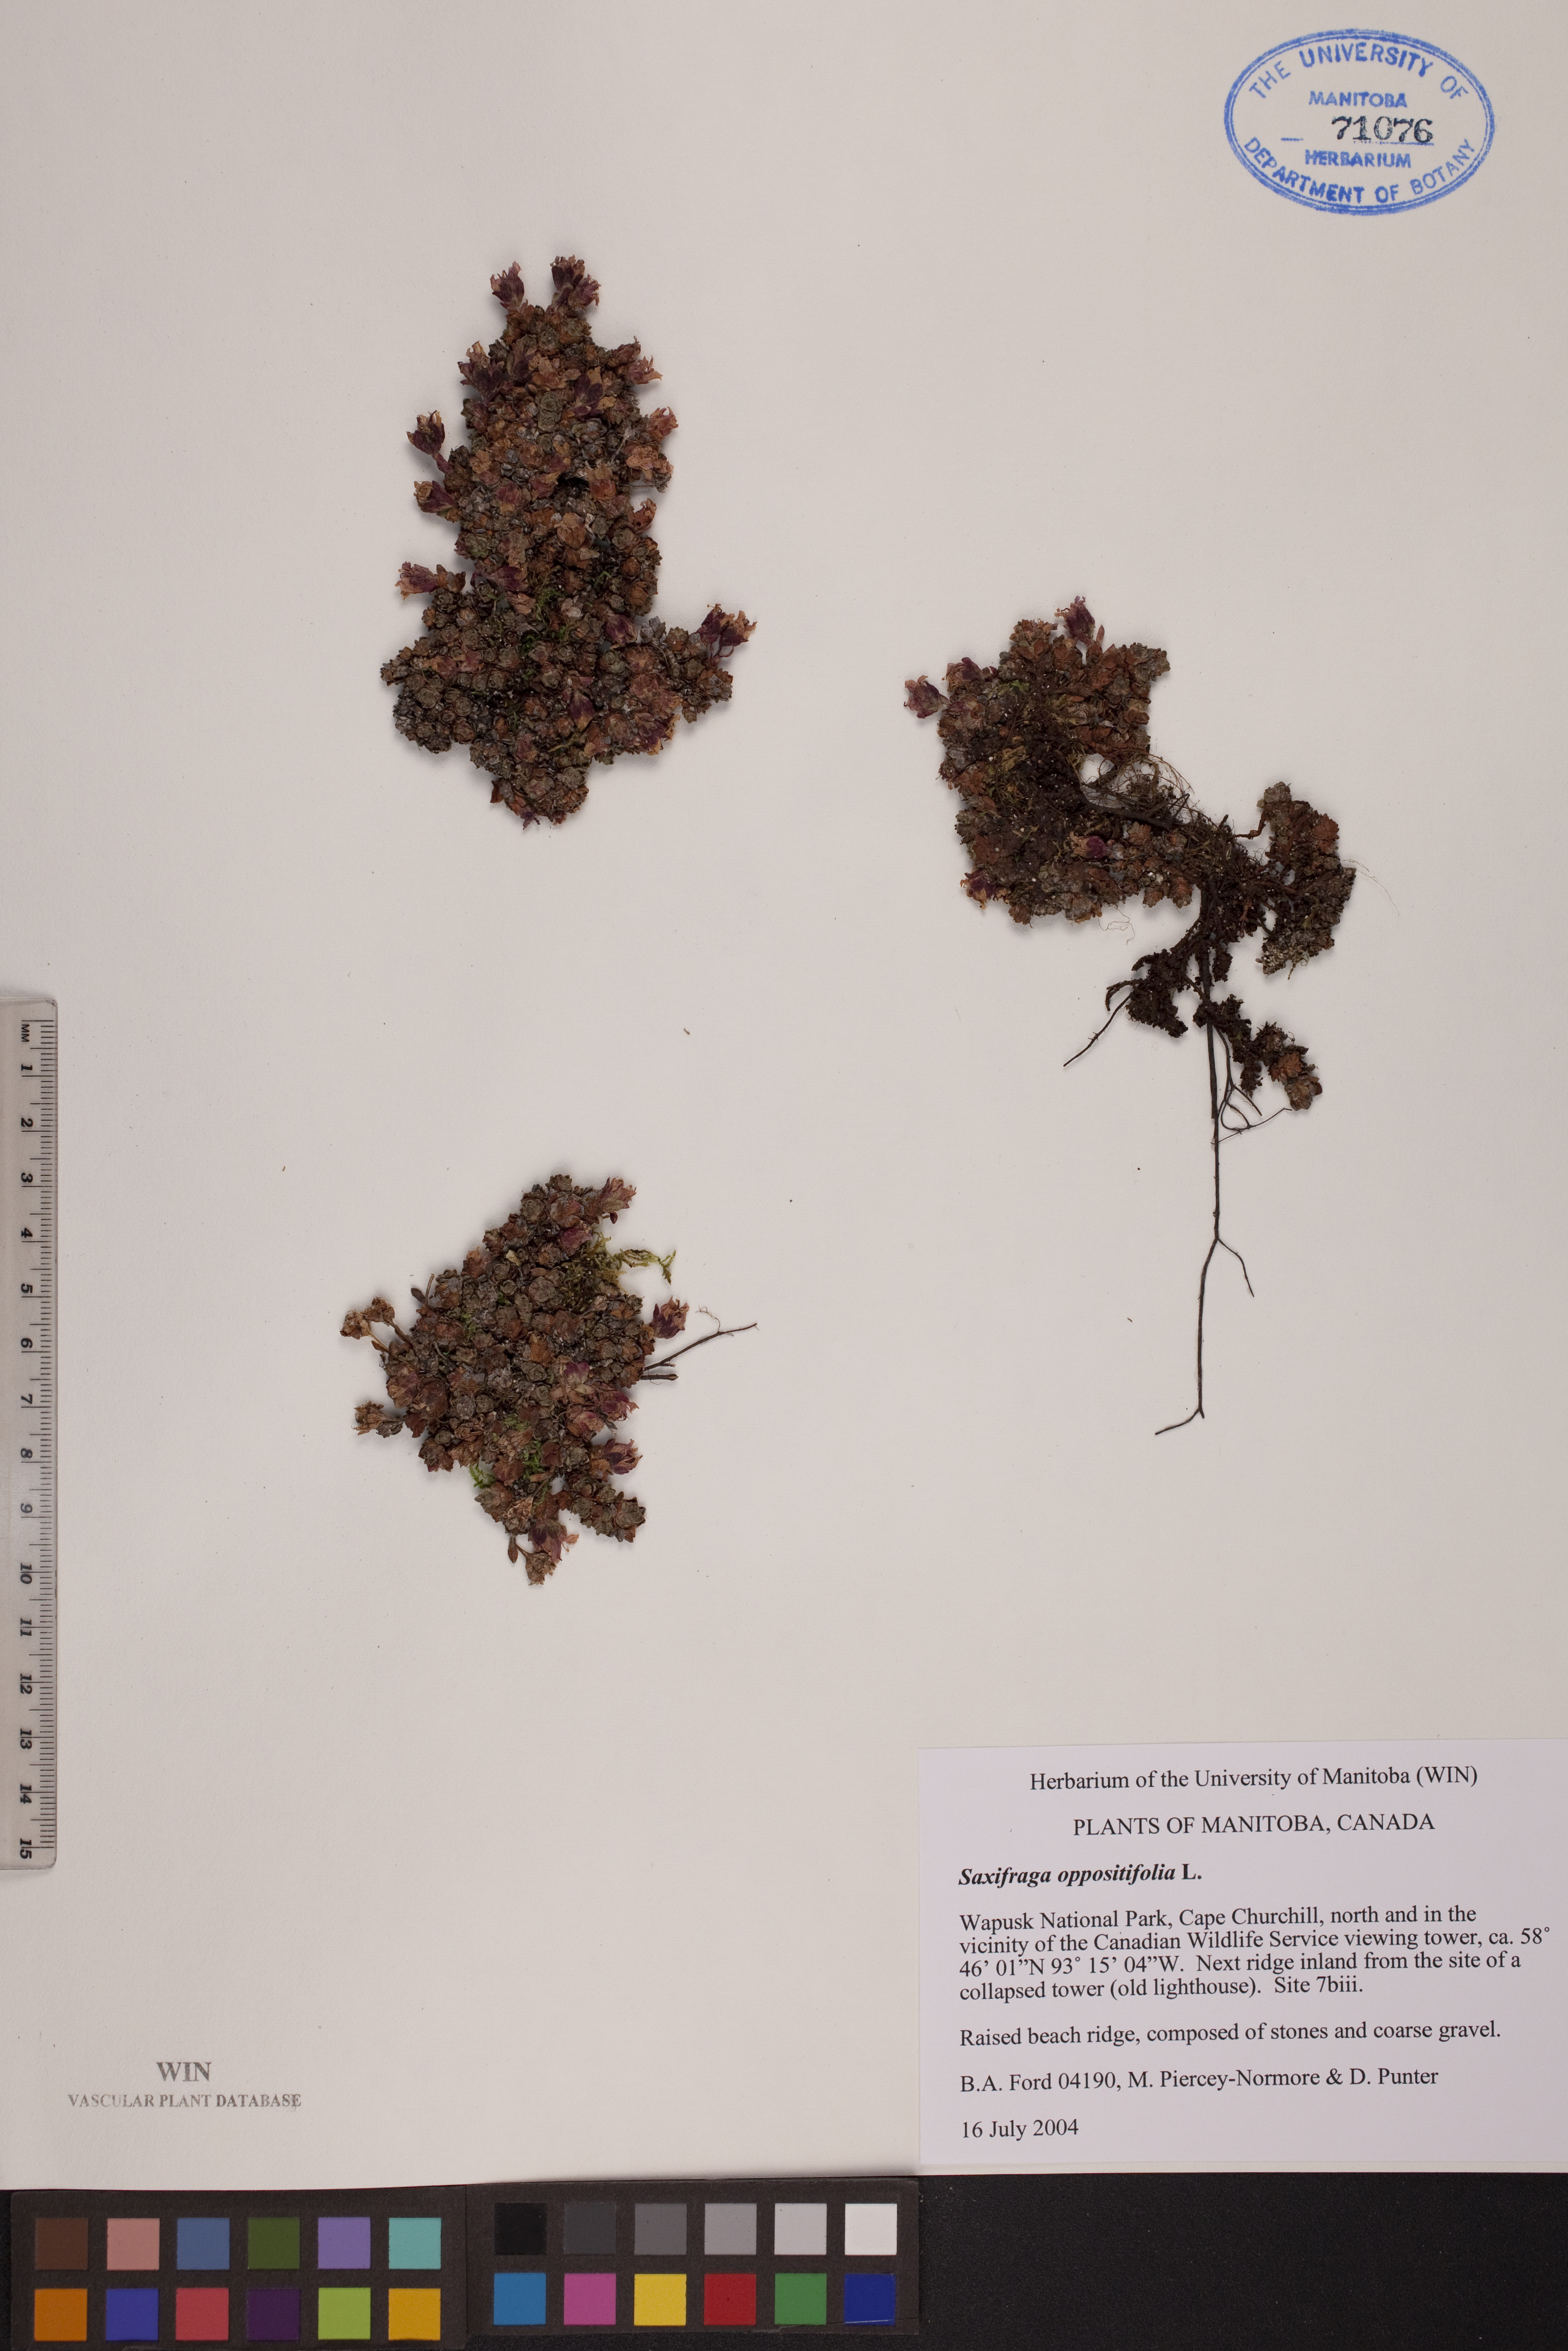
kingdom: Plantae
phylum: Tracheophyta
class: Magnoliopsida
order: Saxifragales
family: Saxifragaceae
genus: Saxifraga
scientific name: Saxifraga oppositifolia
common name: Purple saxifrage
